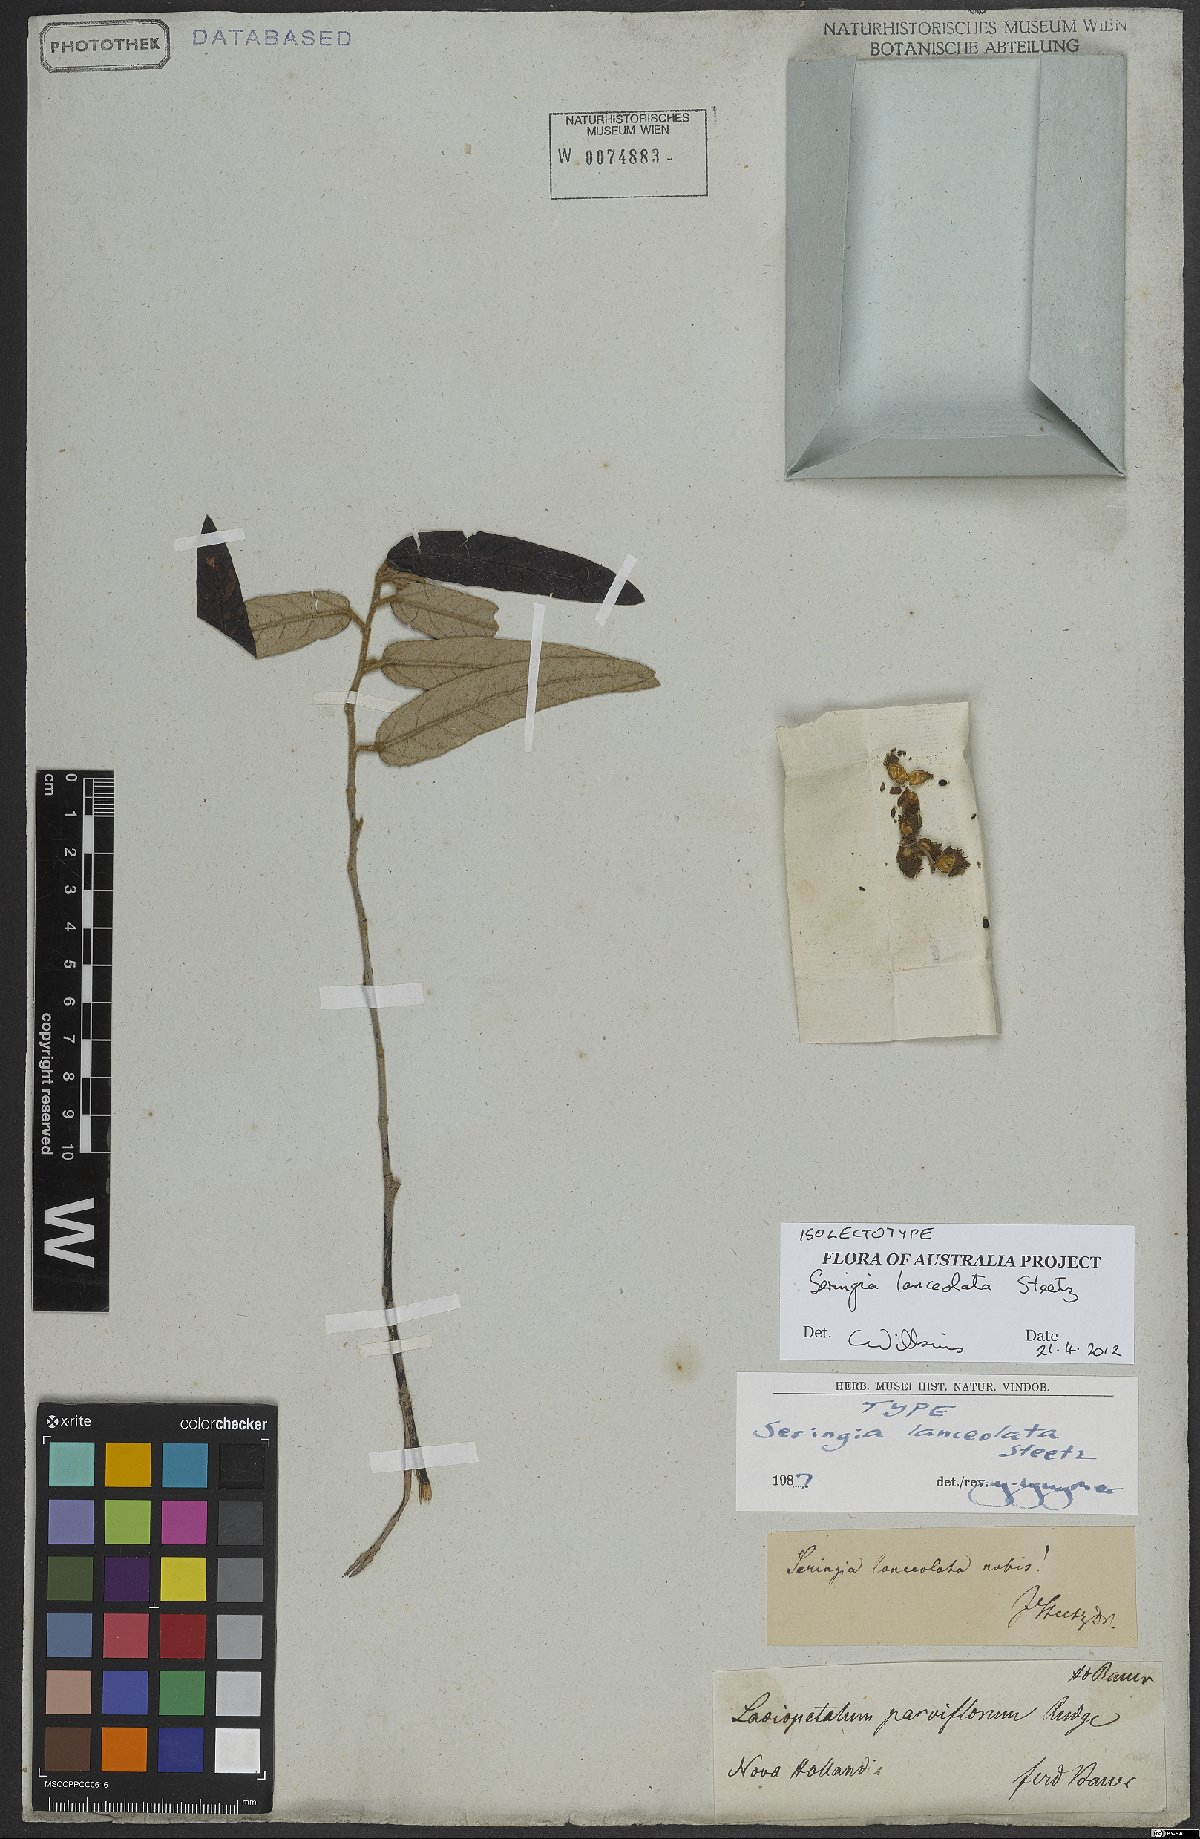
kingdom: Plantae
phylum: Tracheophyta
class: Magnoliopsida
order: Malvales
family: Malvaceae
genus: Seringia
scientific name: Seringia lanceolata
